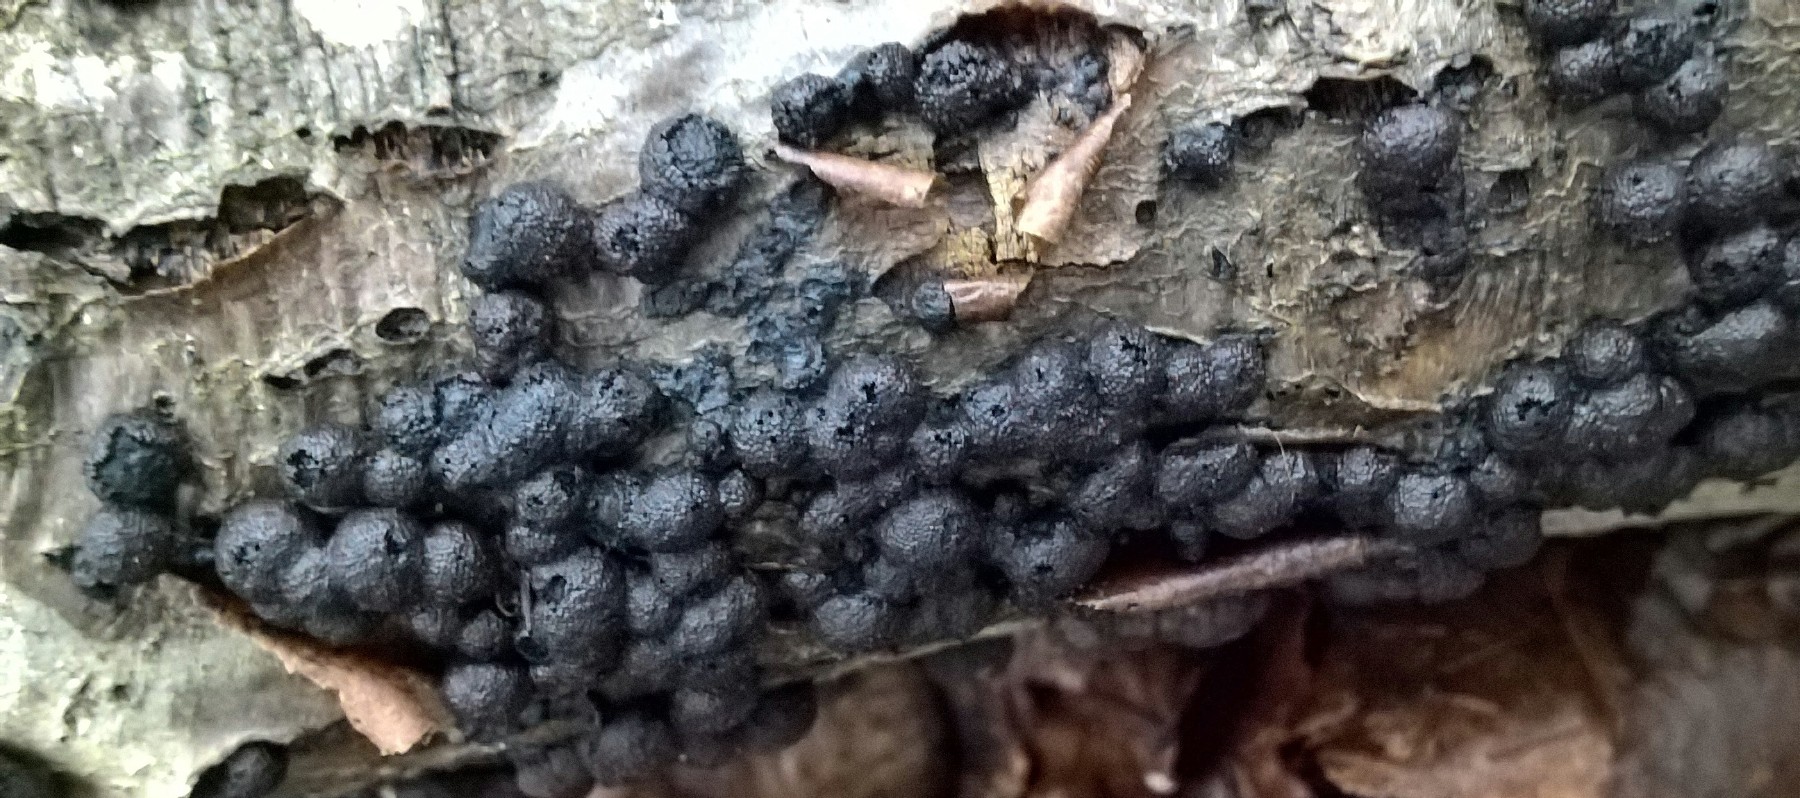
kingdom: Fungi
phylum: Ascomycota
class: Sordariomycetes
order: Xylariales
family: Hypoxylaceae
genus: Hypoxylon
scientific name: Hypoxylon fragiforme
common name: kuljordbær
